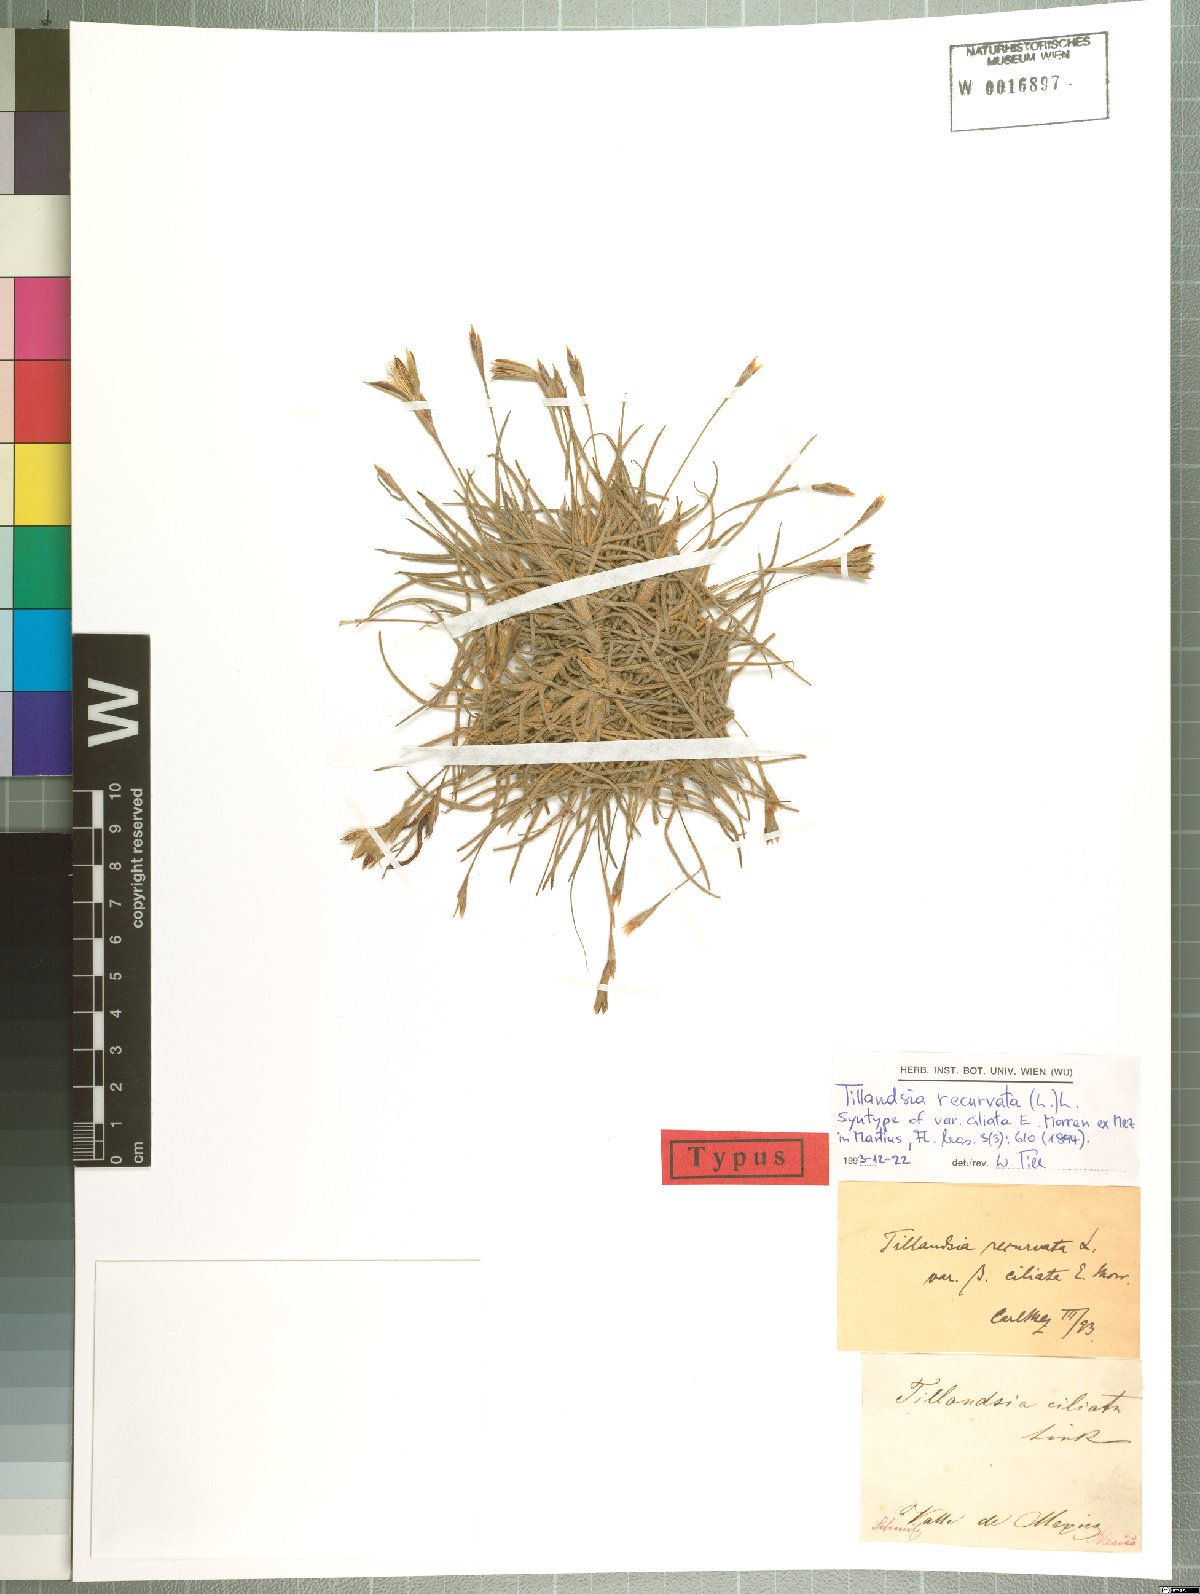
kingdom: Plantae
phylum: Tracheophyta
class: Liliopsida
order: Poales
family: Bromeliaceae
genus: Tillandsia
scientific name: Tillandsia recurvata
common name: Small ballmoss
